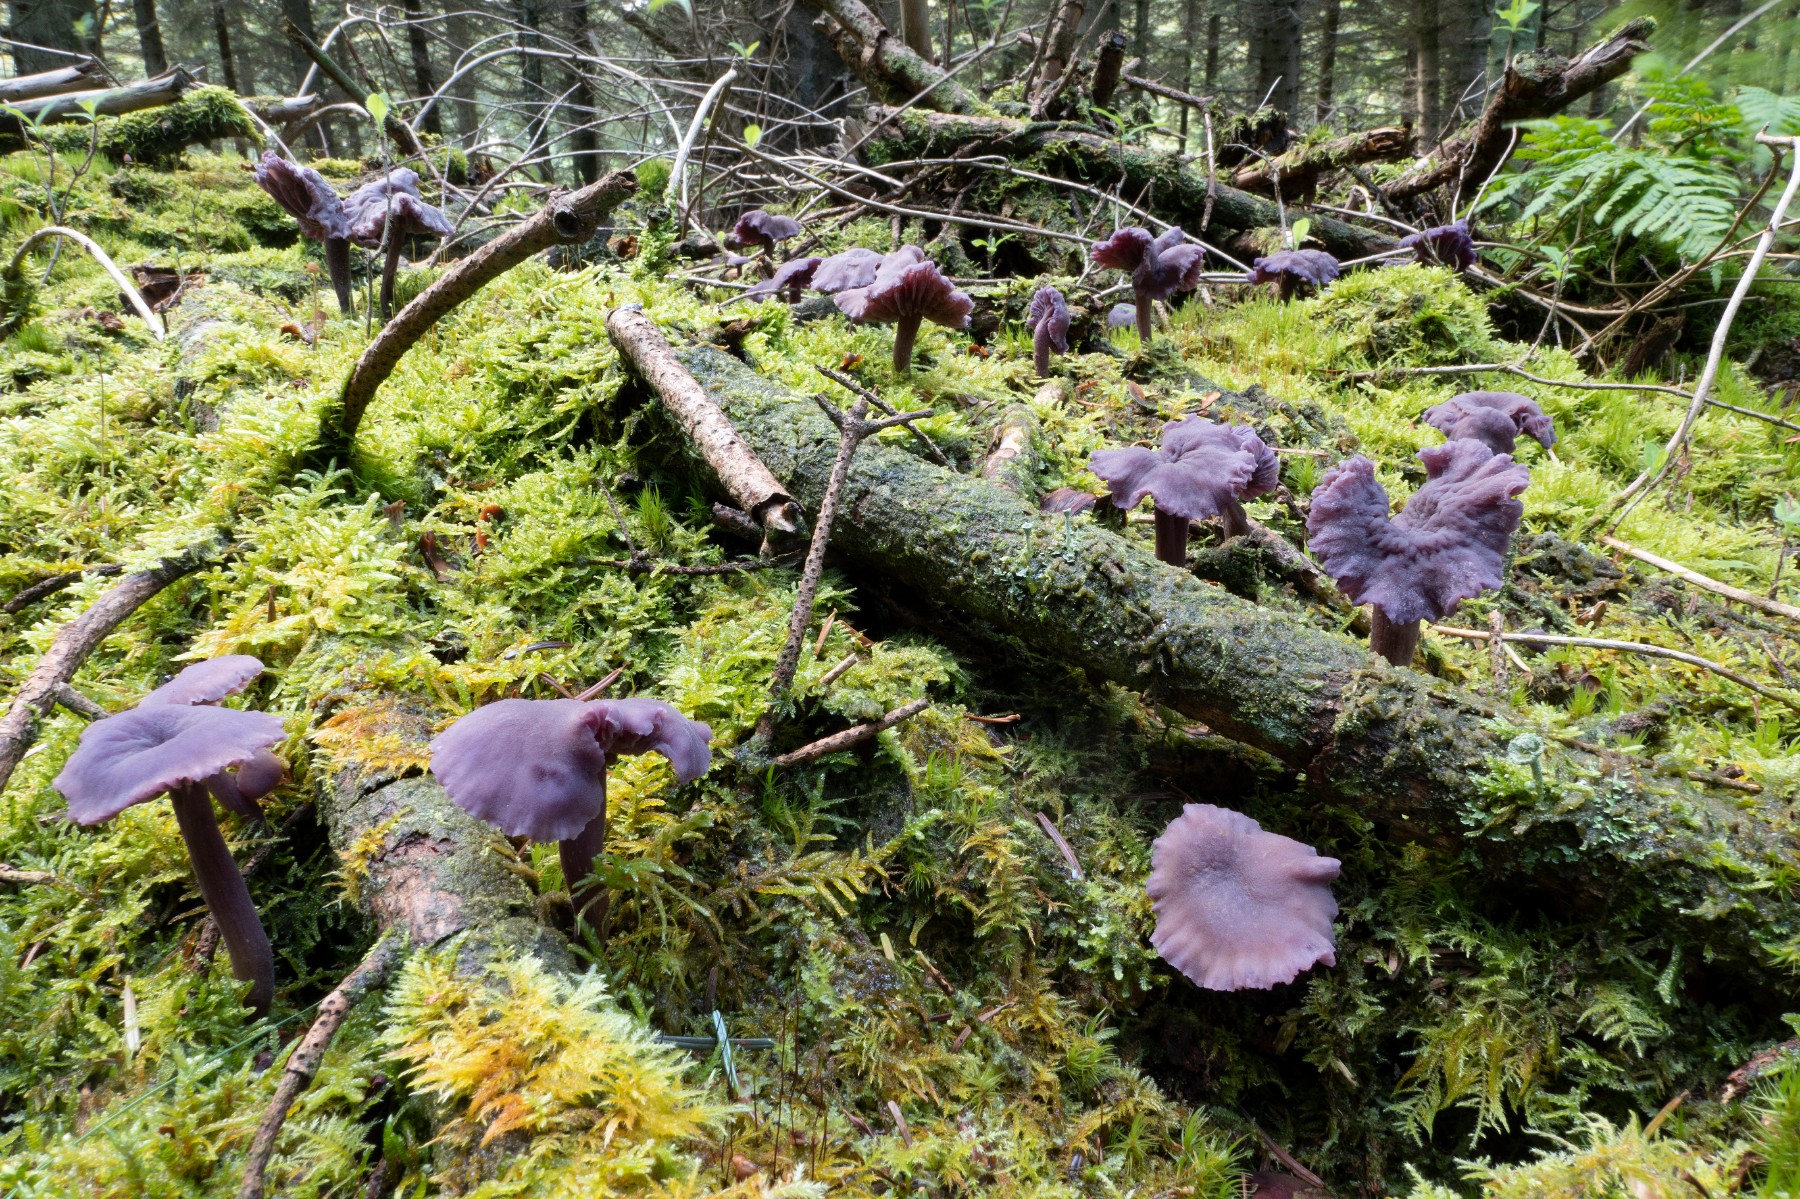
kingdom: Fungi
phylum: Basidiomycota
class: Agaricomycetes
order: Agaricales
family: Hydnangiaceae
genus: Laccaria
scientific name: Laccaria amethystina
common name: violet ametysthat
